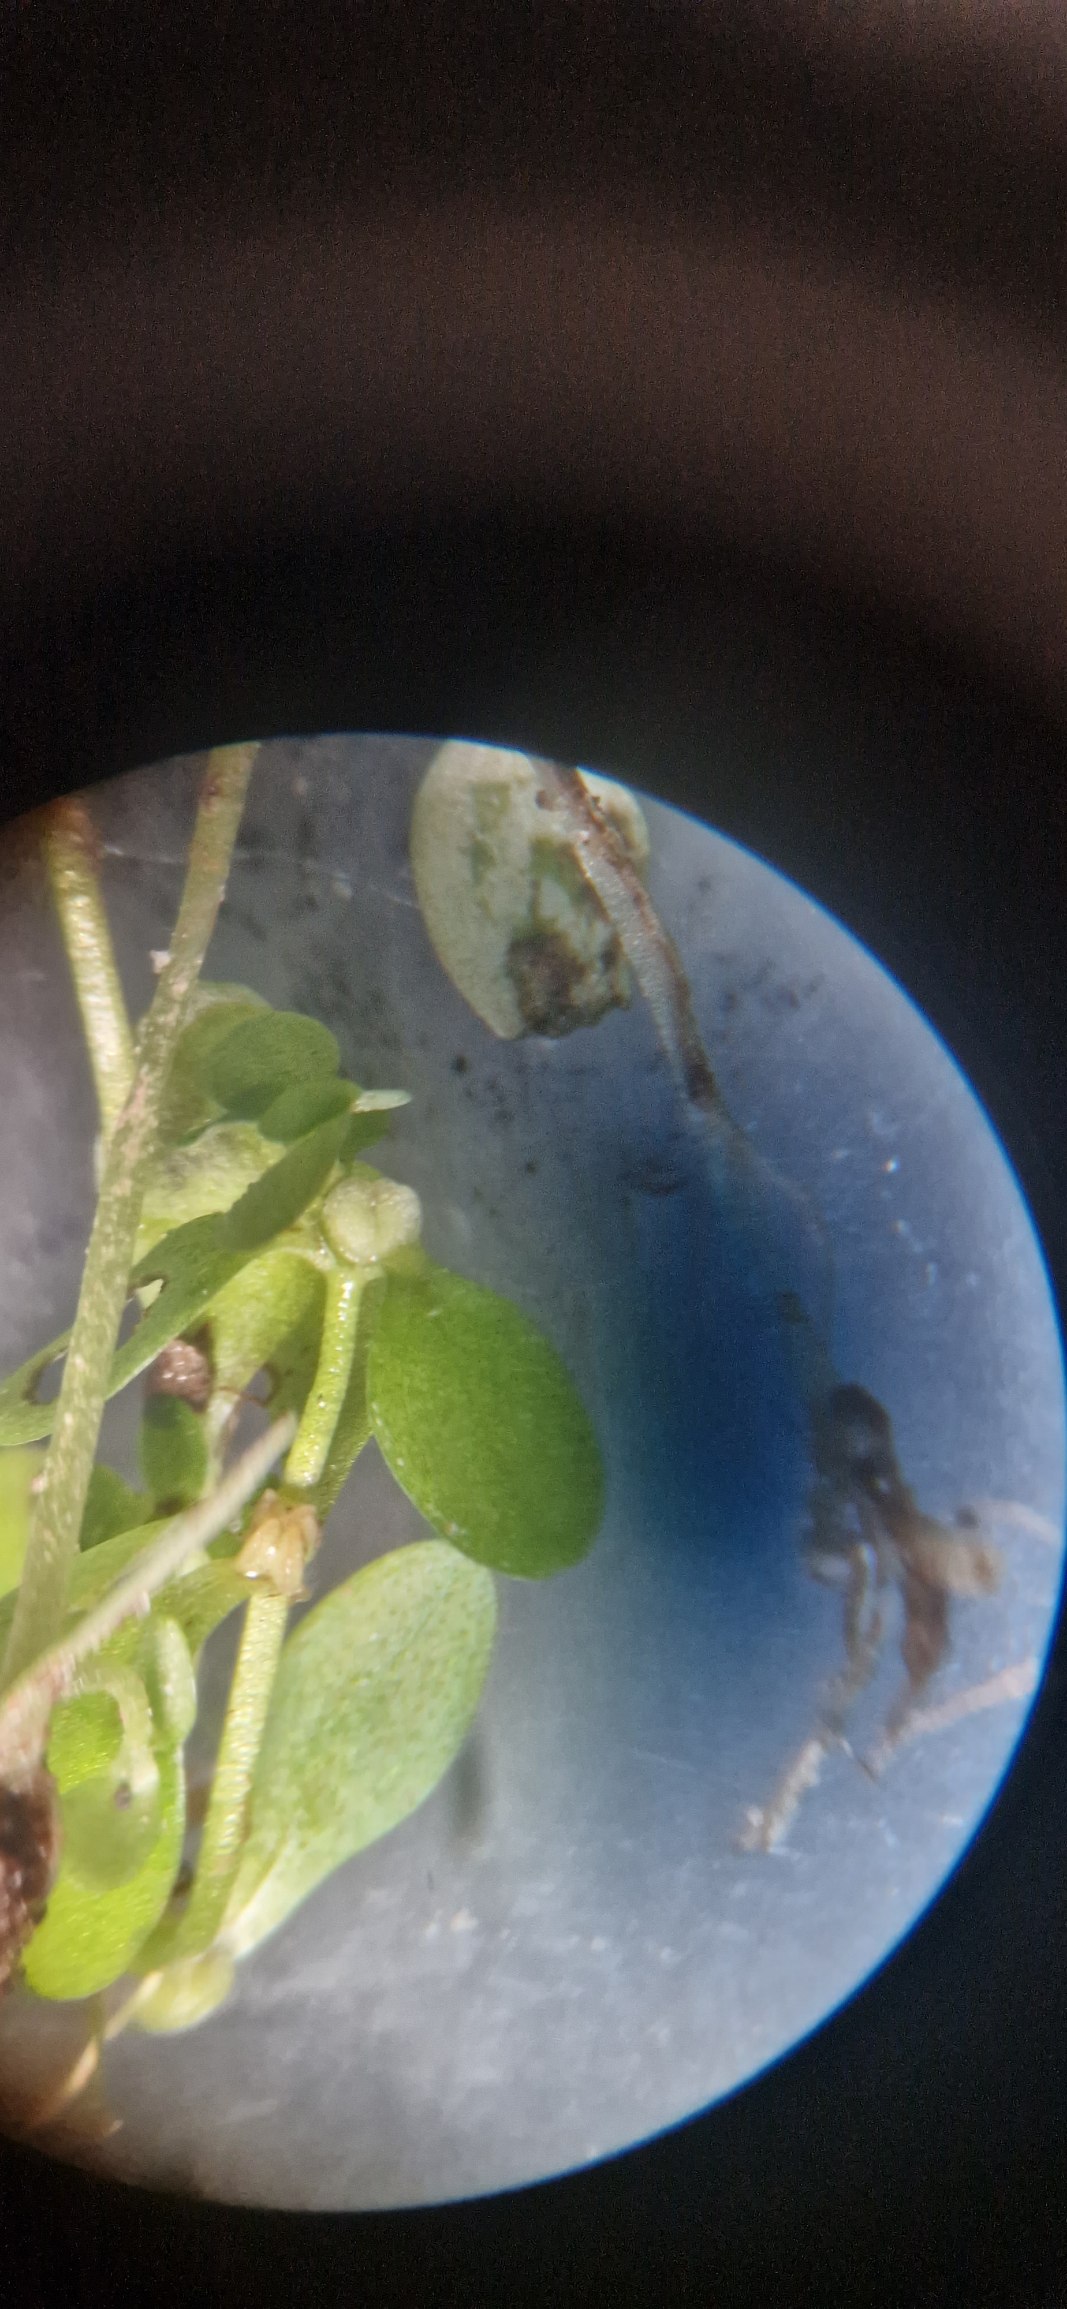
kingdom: Plantae
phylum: Tracheophyta
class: Magnoliopsida
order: Lamiales
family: Plantaginaceae
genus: Callitriche
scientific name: Callitriche stagnalis
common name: Storfrugtet vandstjerne
